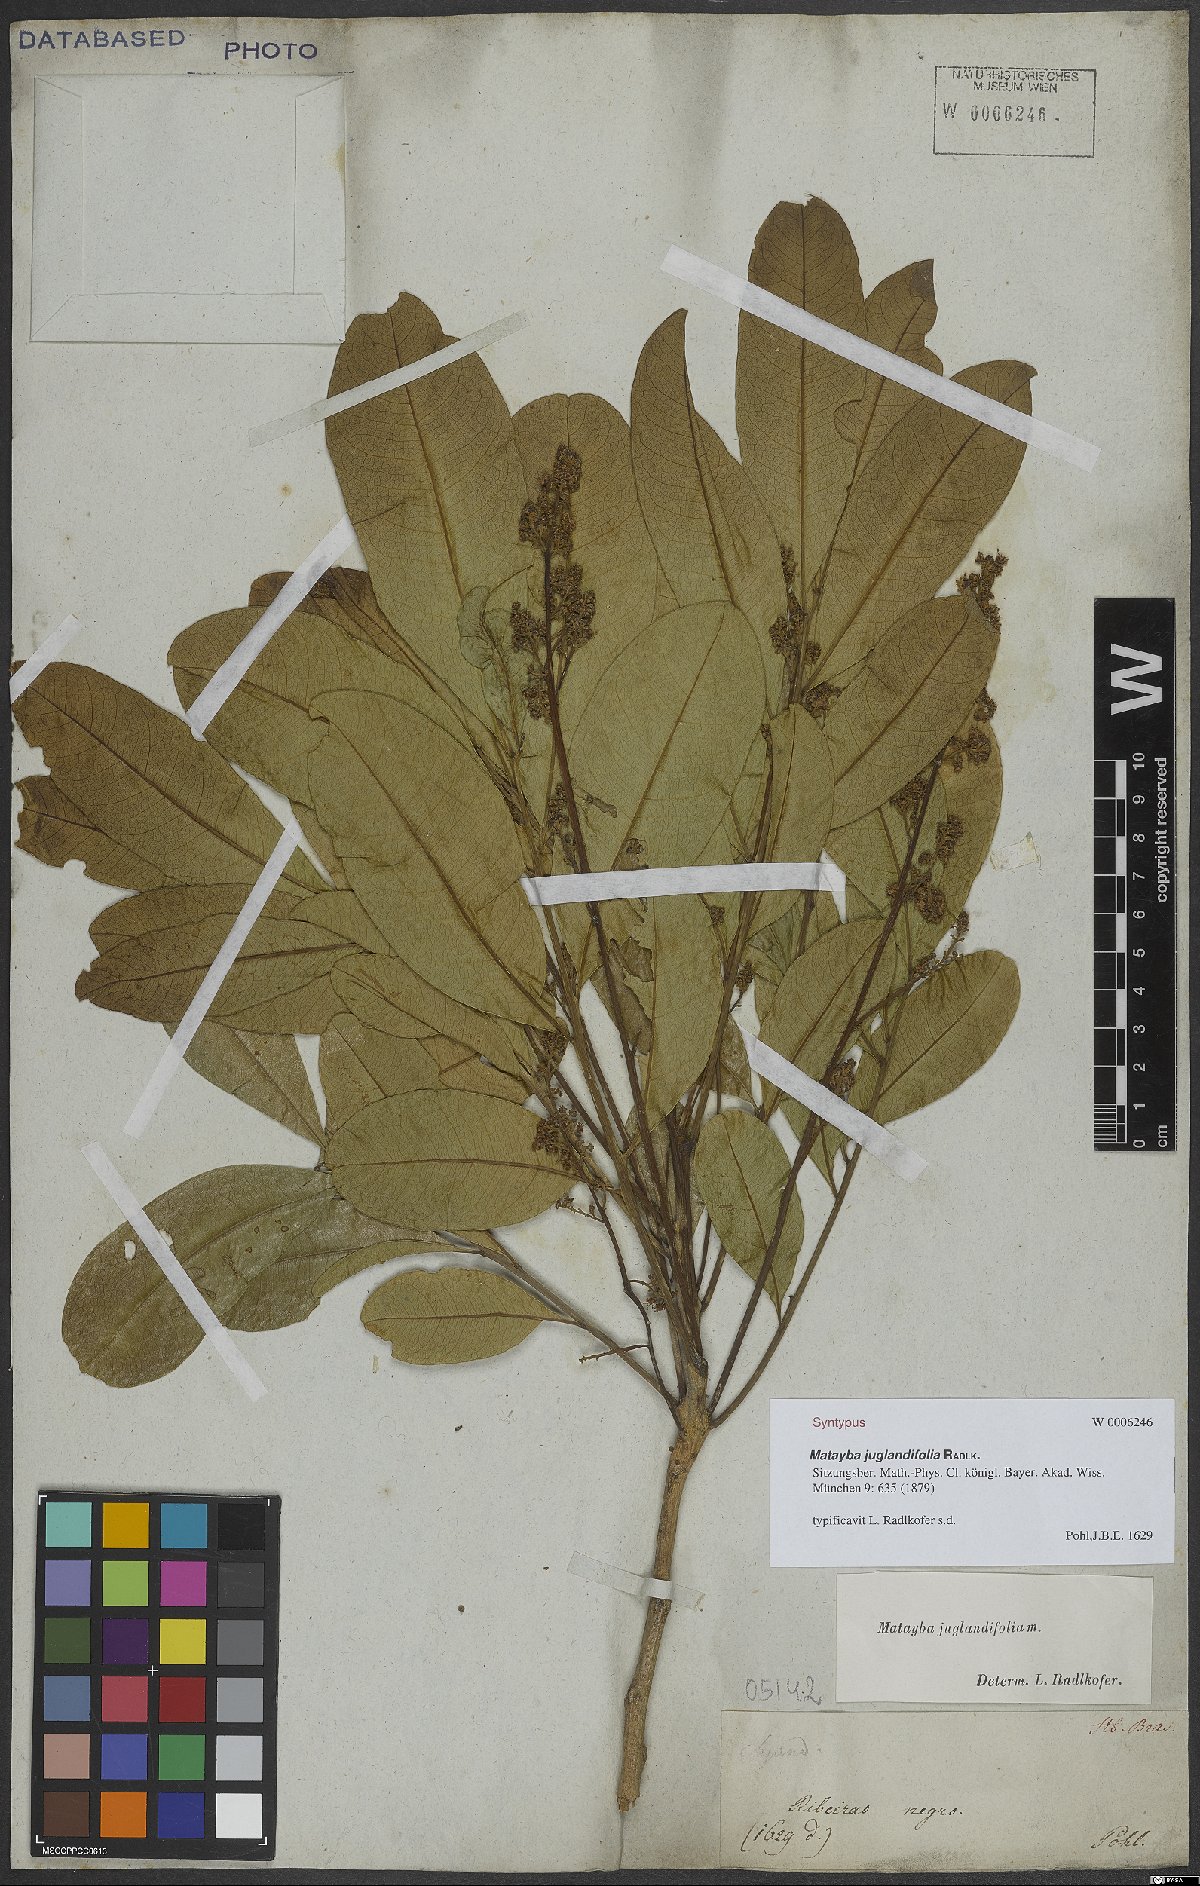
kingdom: Plantae
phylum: Tracheophyta
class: Magnoliopsida
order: Sapindales
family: Sapindaceae
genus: Matayba
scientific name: Matayba juglandifolia
